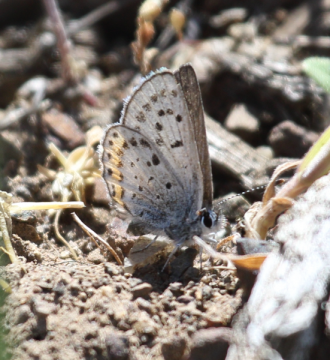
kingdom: Animalia
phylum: Arthropoda
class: Insecta
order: Lepidoptera
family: Lycaenidae
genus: Icaricia
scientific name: Icaricia lupini
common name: Lupine Blue
